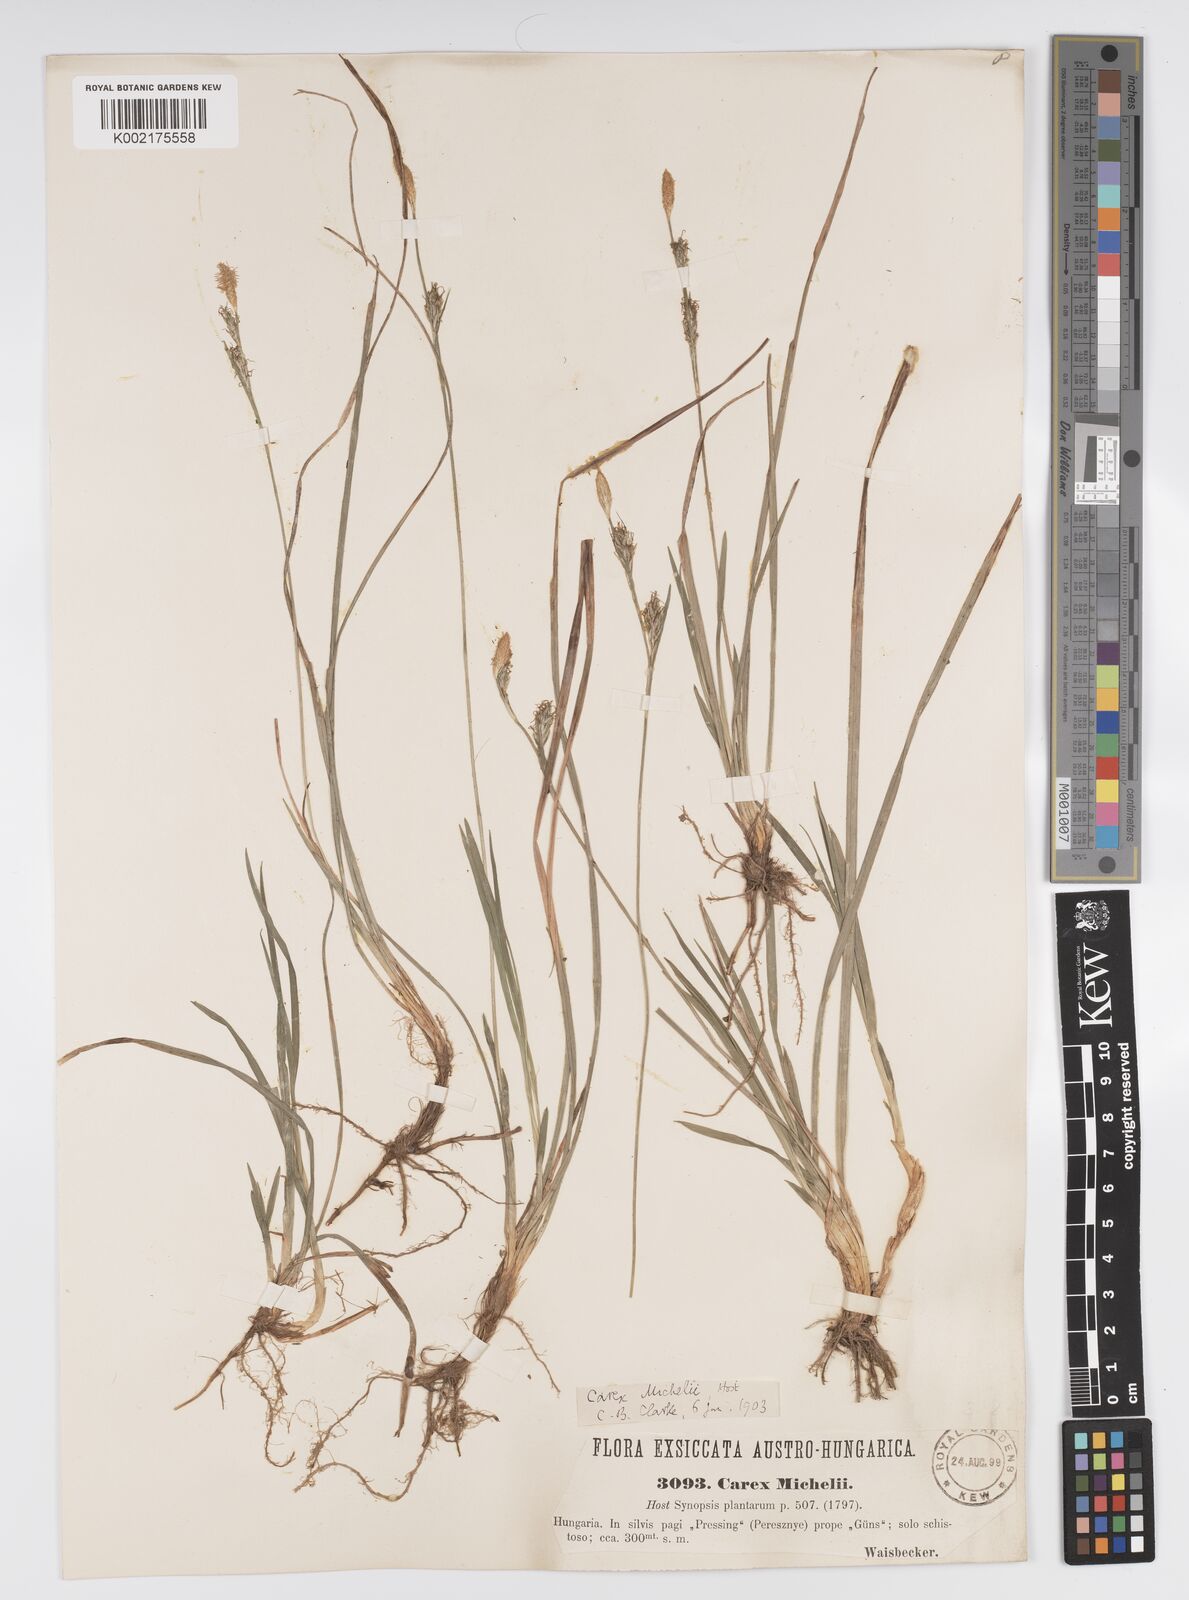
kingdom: Plantae
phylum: Tracheophyta
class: Liliopsida
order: Poales
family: Cyperaceae
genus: Carex
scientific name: Carex michelii
